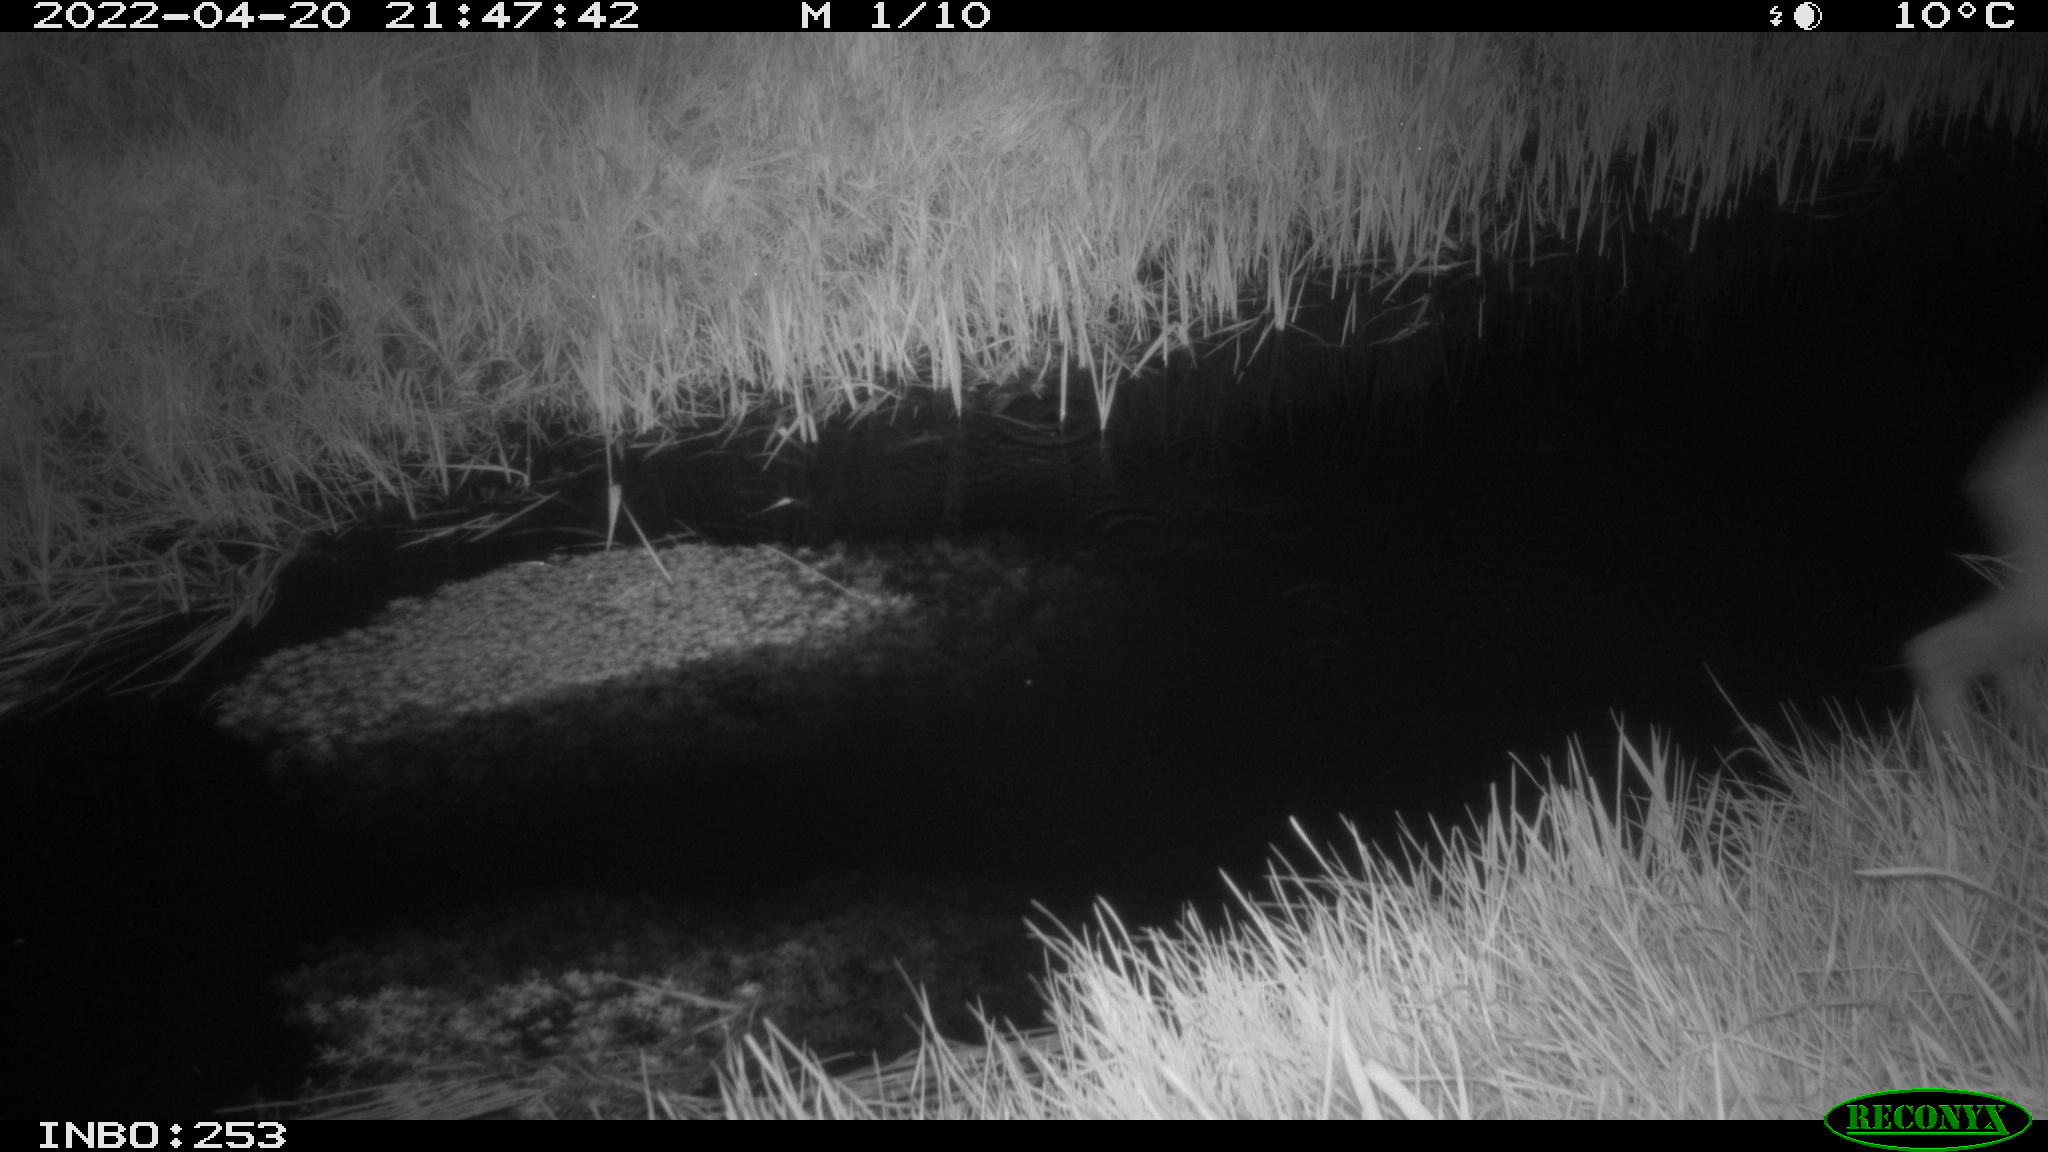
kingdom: Animalia
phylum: Chordata
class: Mammalia
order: Artiodactyla
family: Cervidae
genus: Capreolus
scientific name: Capreolus capreolus
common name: Western roe deer
